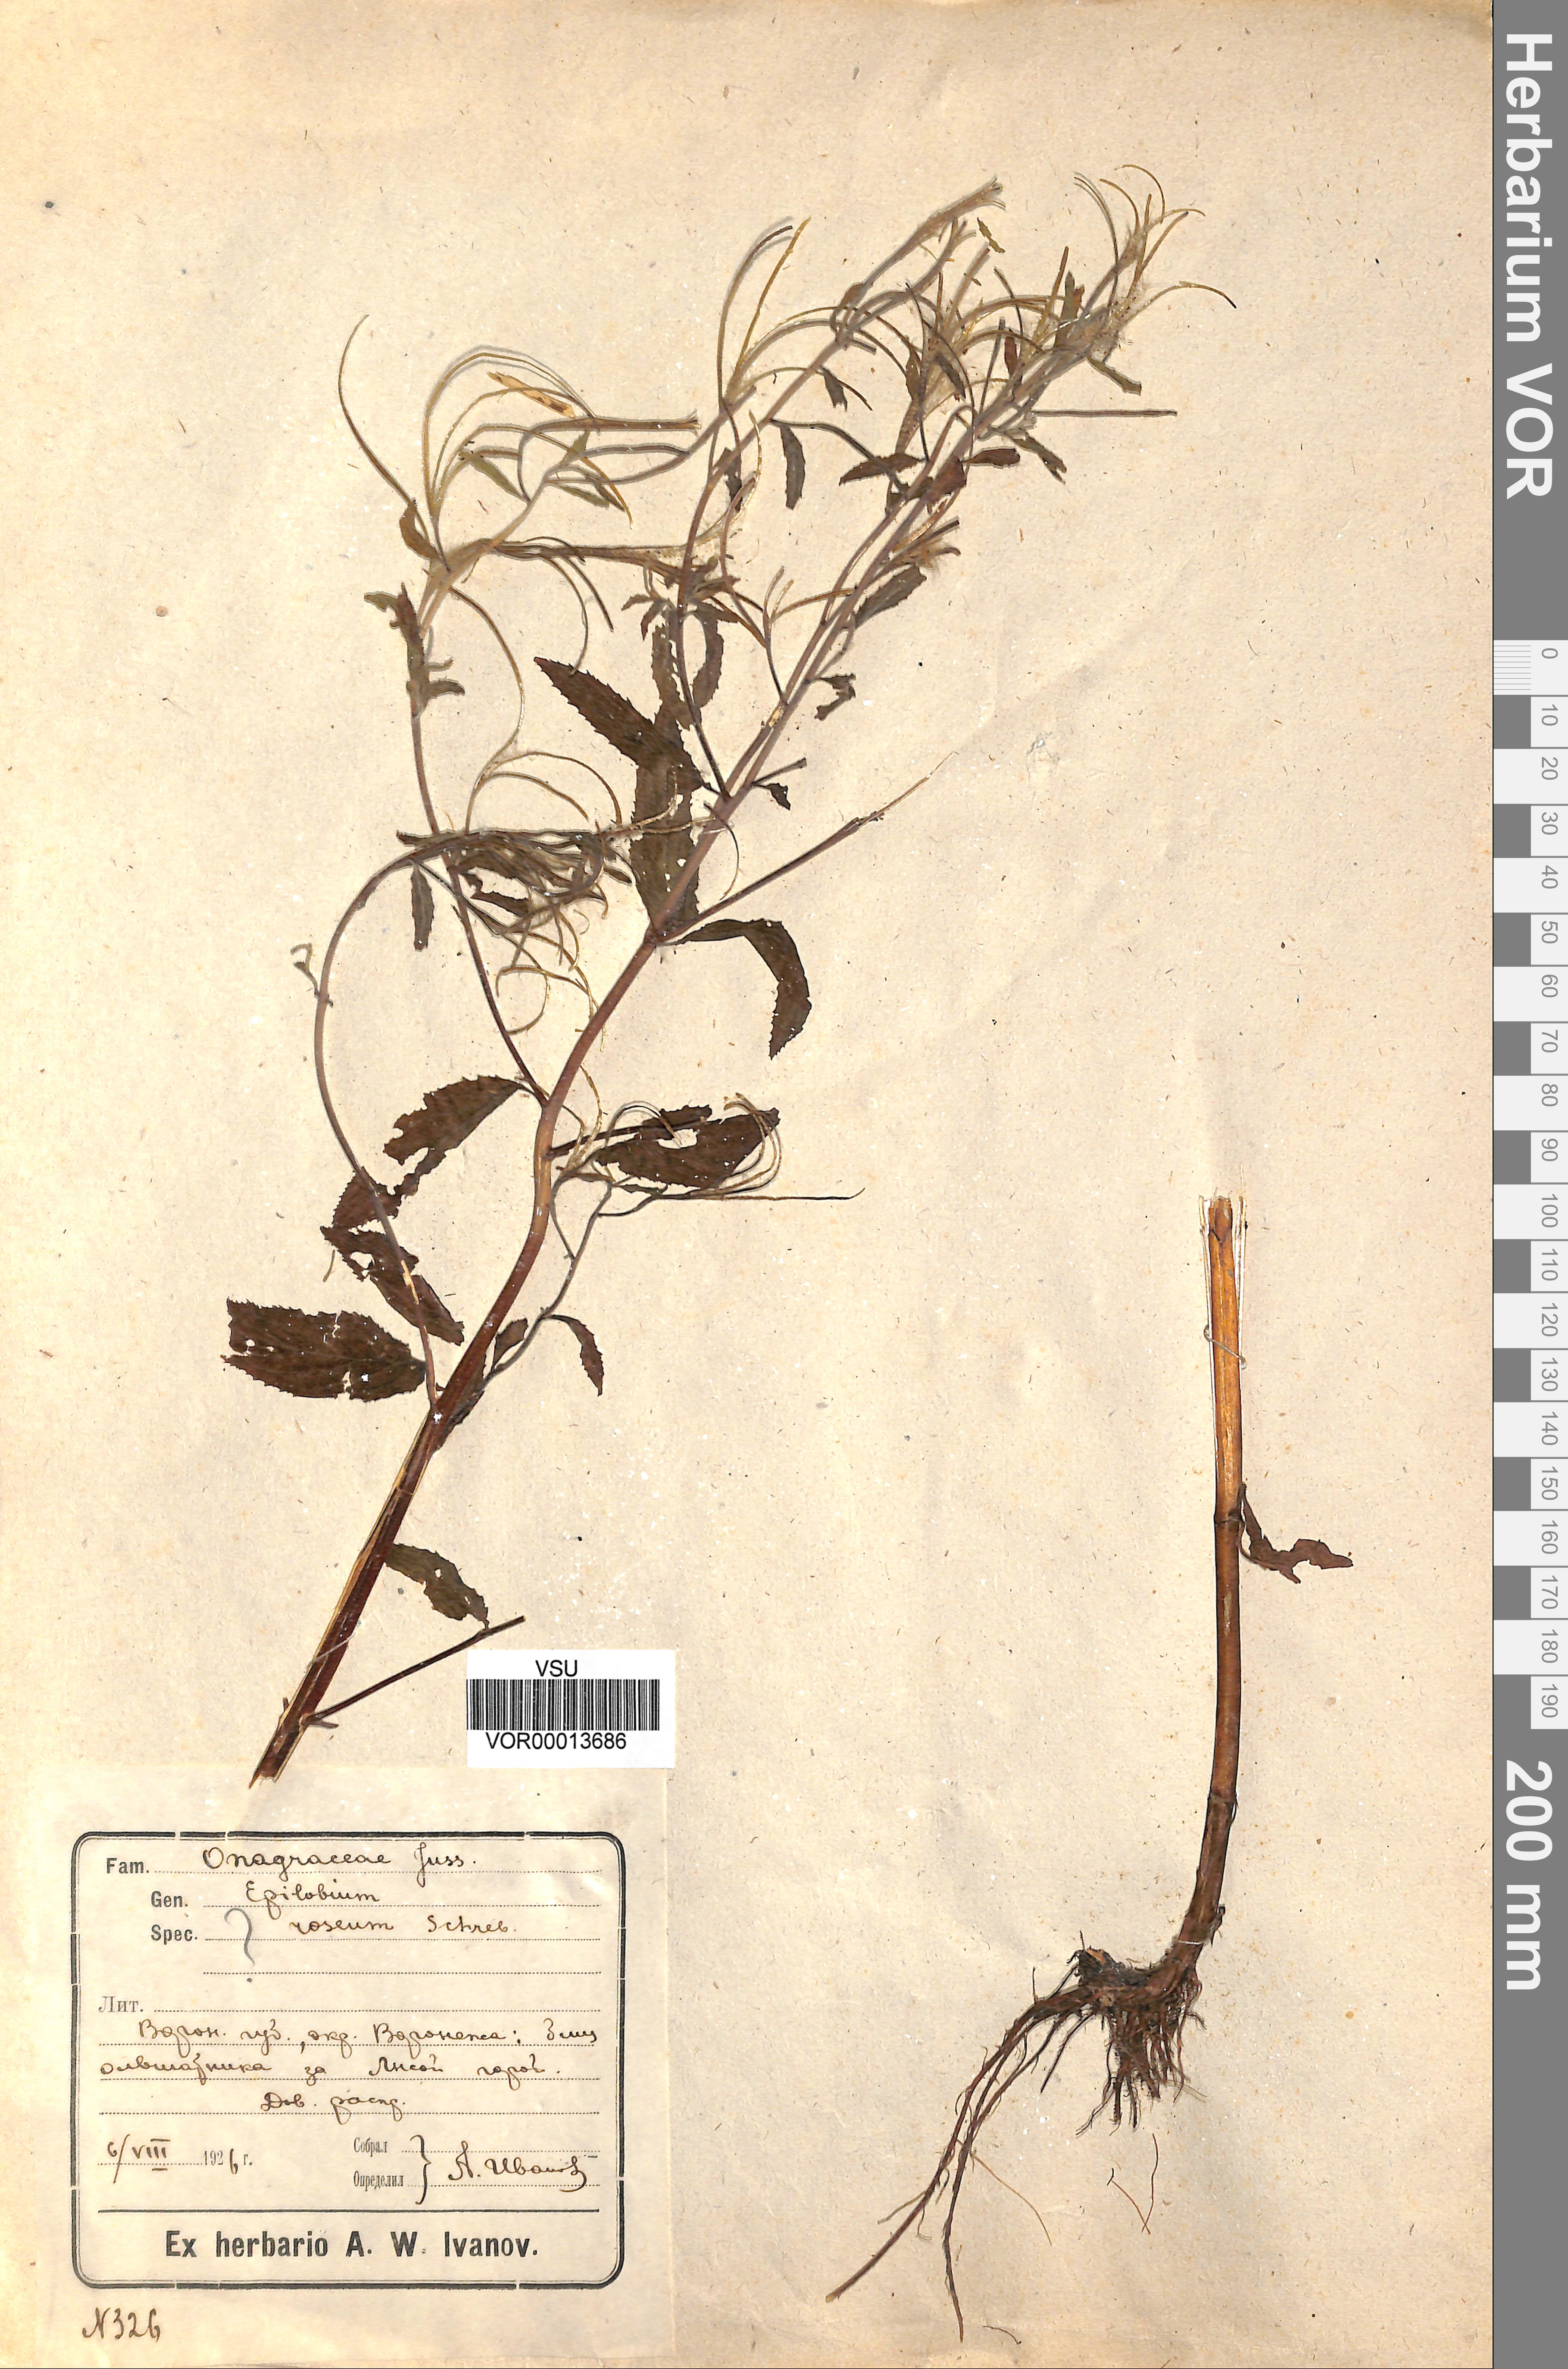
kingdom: Plantae
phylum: Tracheophyta
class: Magnoliopsida
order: Myrtales
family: Onagraceae
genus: Epilobium
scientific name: Epilobium roseum
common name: Pale willowherb
